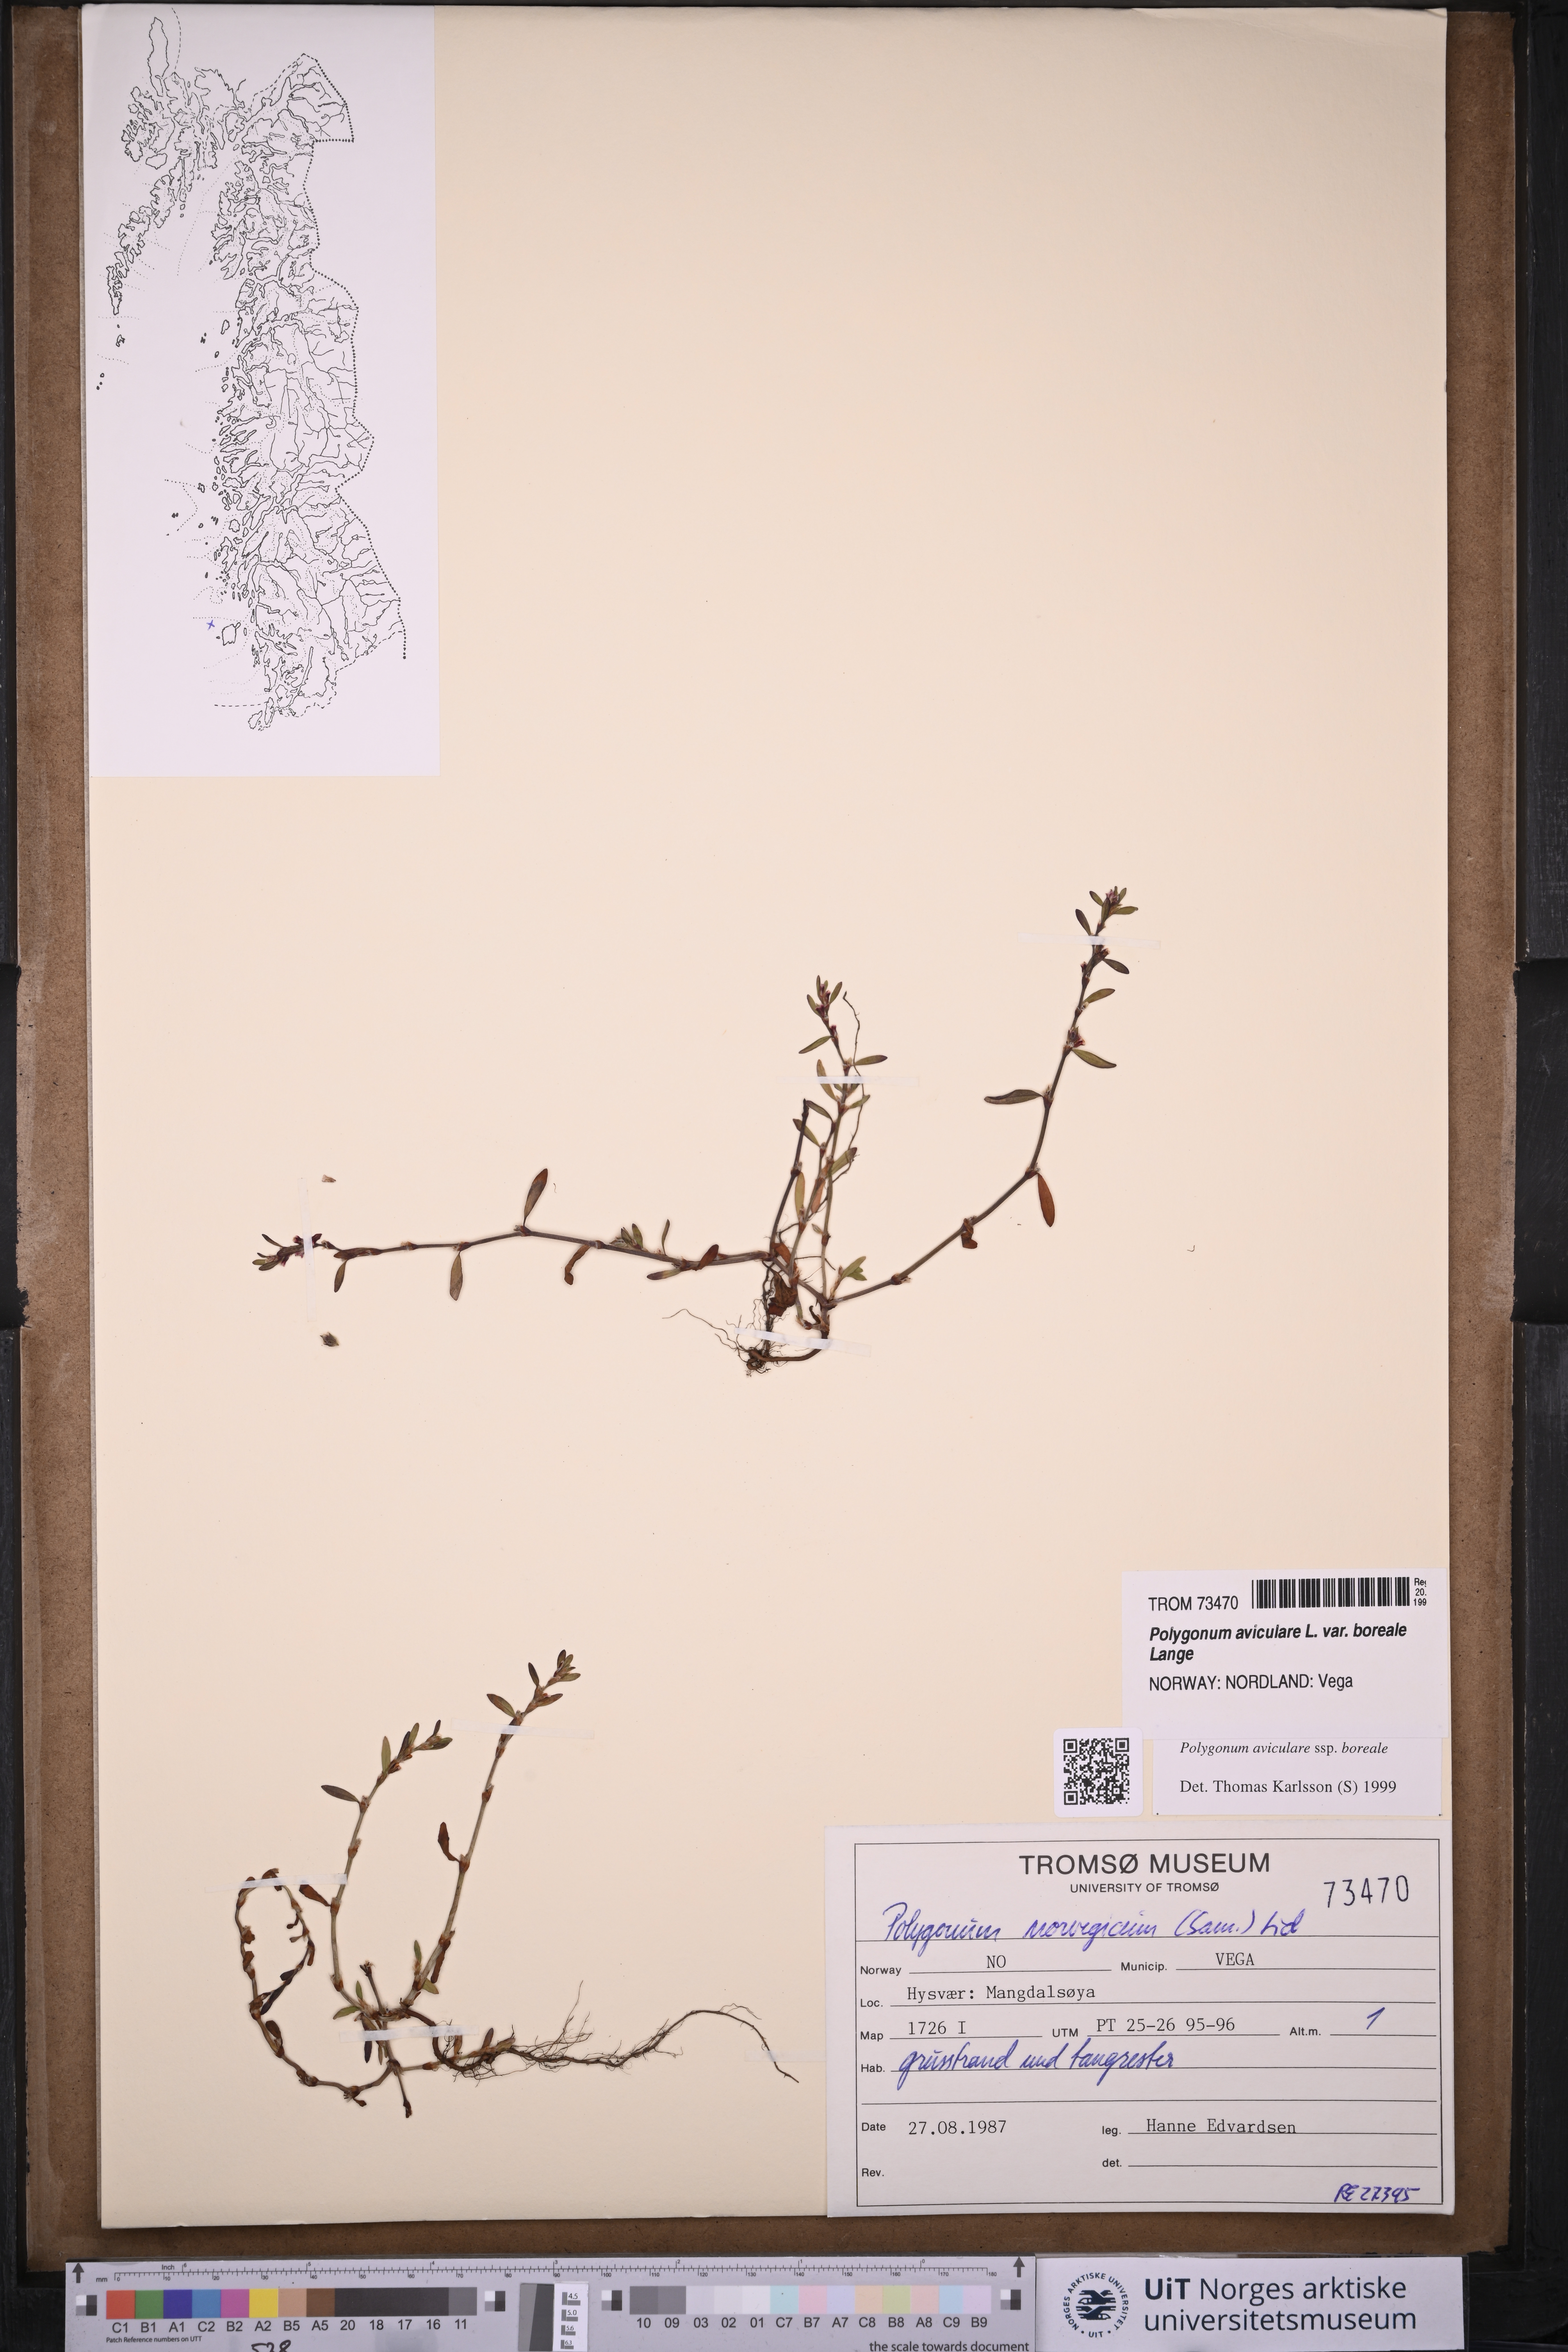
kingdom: Plantae
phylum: Tracheophyta
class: Magnoliopsida
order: Caryophyllales
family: Polygonaceae
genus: Polygonum
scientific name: Polygonum boreale
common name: Northern knotgrass
